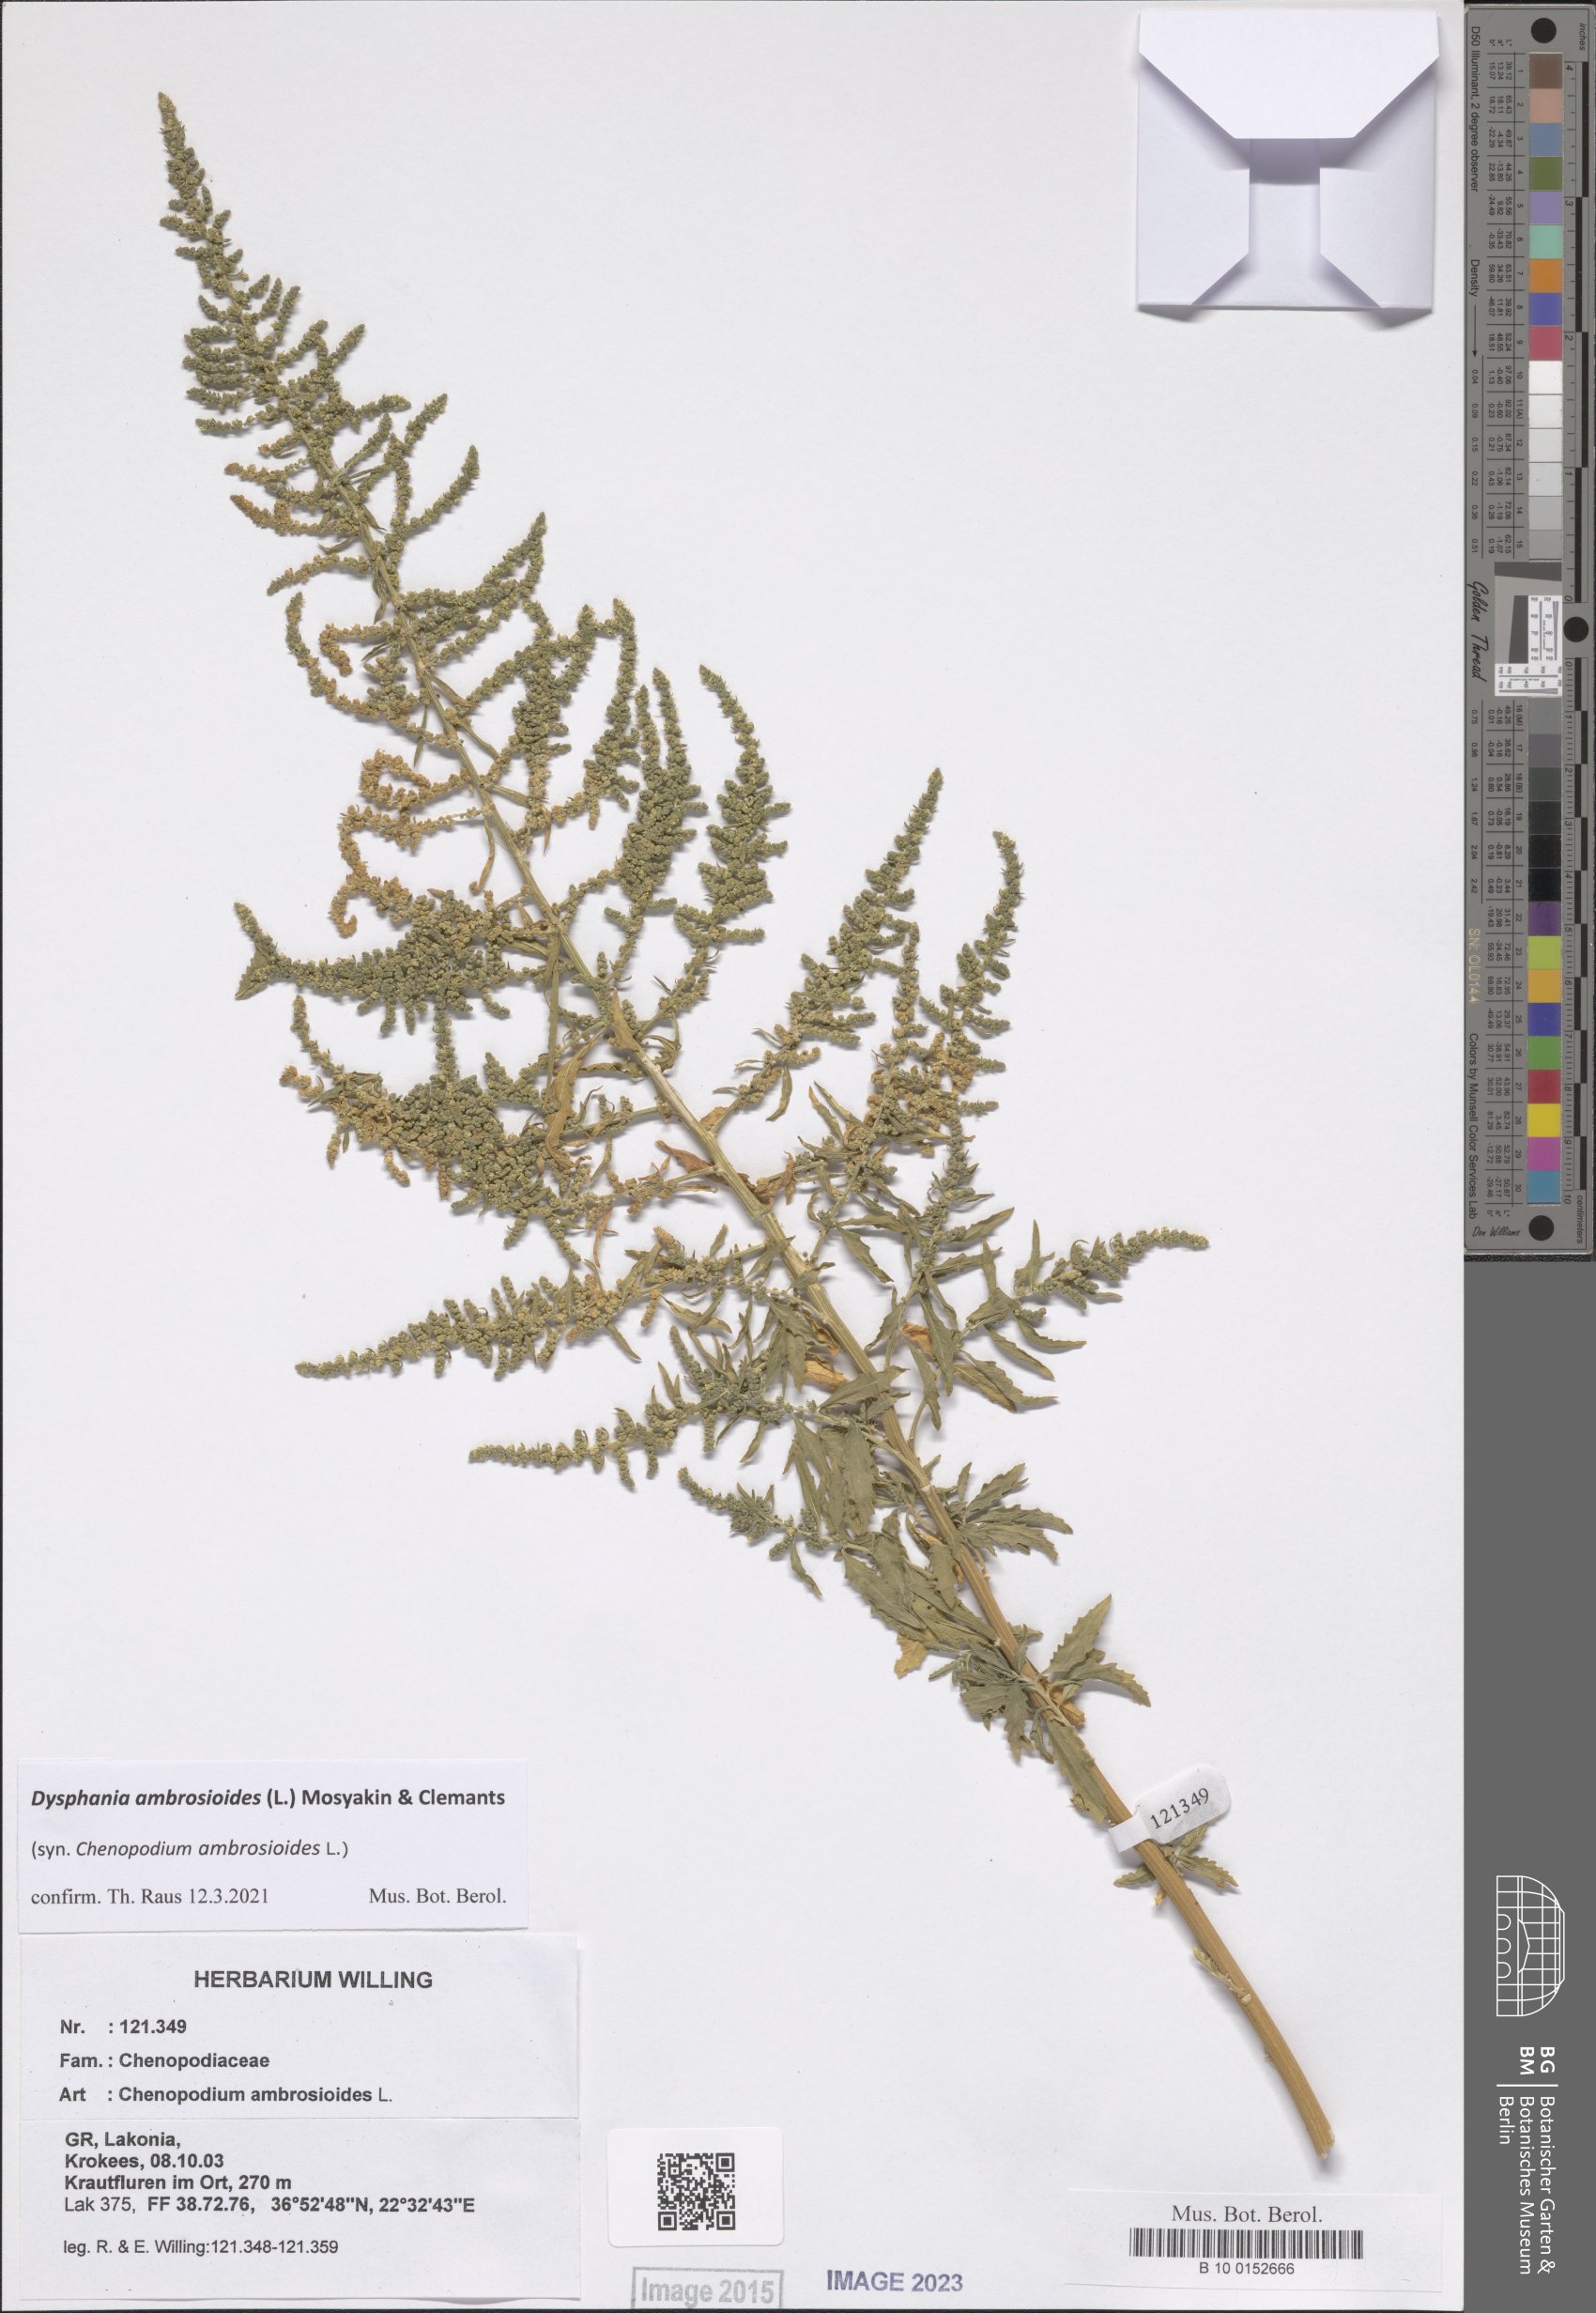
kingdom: Plantae
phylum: Tracheophyta
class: Magnoliopsida
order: Caryophyllales
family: Amaranthaceae
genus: Dysphania
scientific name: Dysphania ambrosioides
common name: Wormseed
